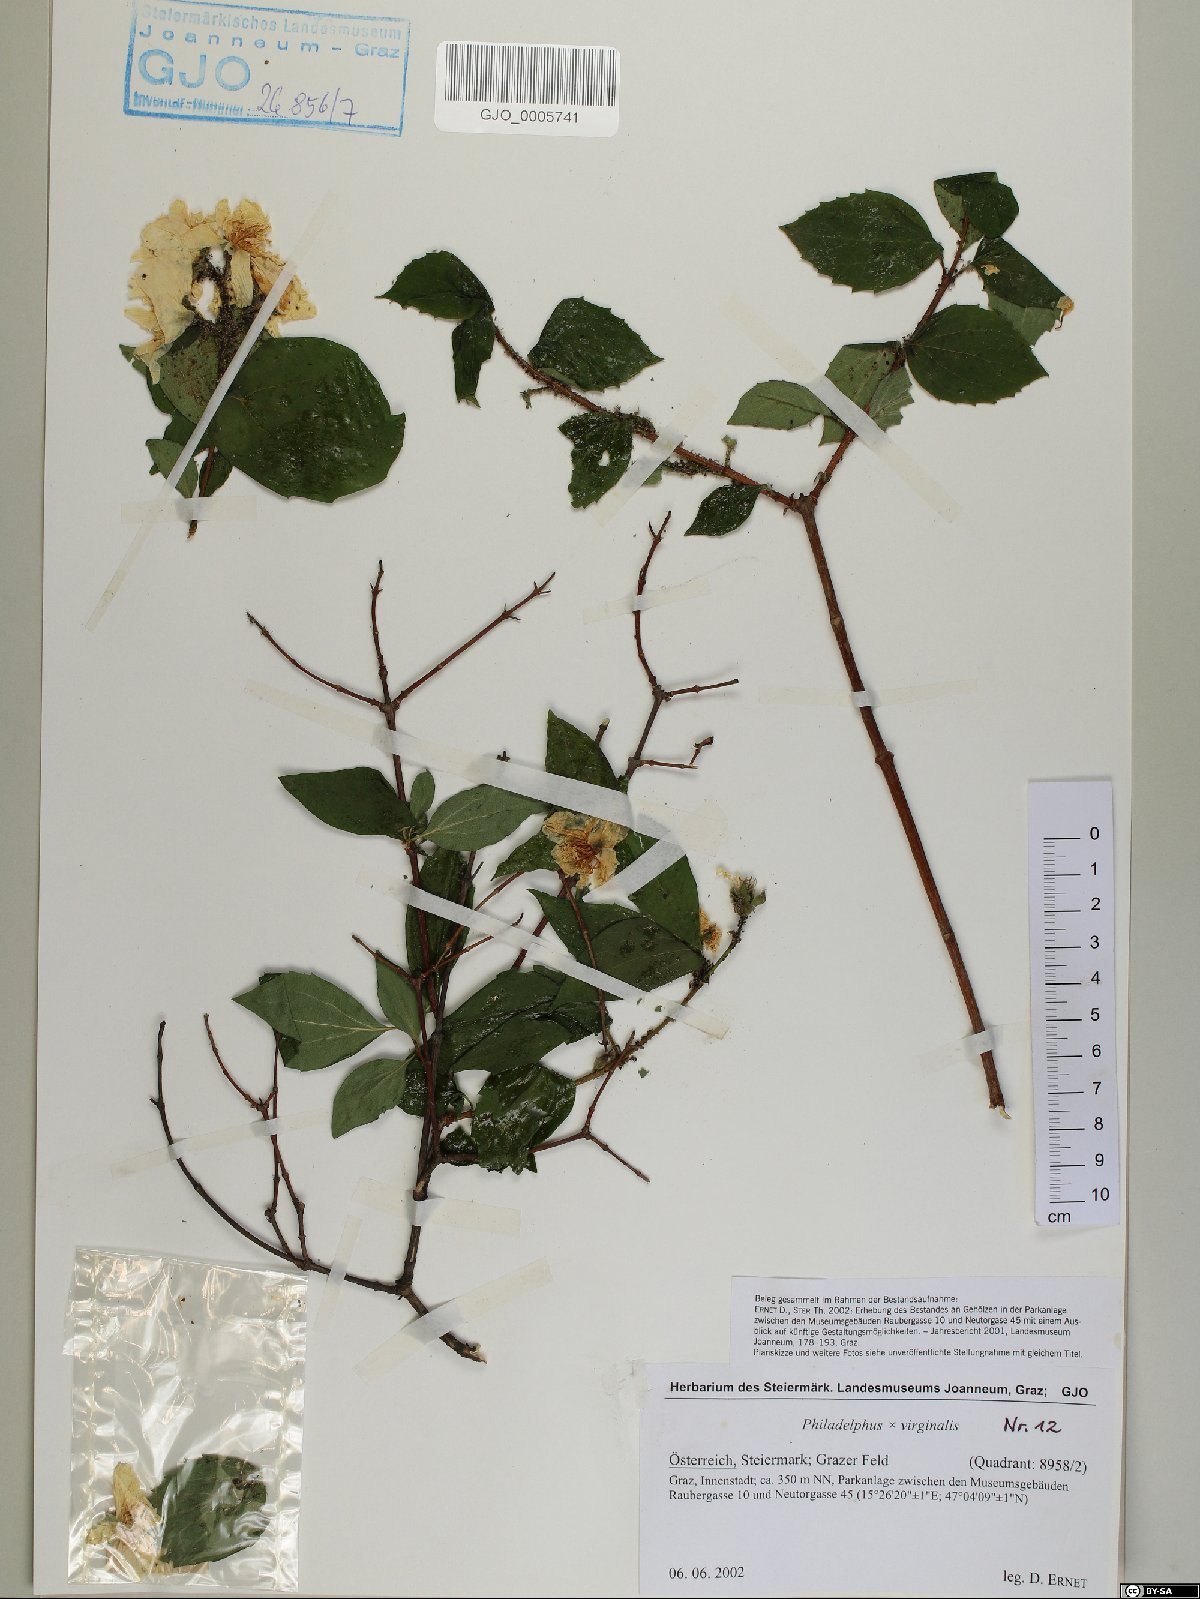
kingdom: Plantae
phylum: Tracheophyta
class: Magnoliopsida
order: Cornales
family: Hydrangeaceae
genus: Philadelphus
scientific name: Philadelphus virginalis
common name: Hairy mock orange
